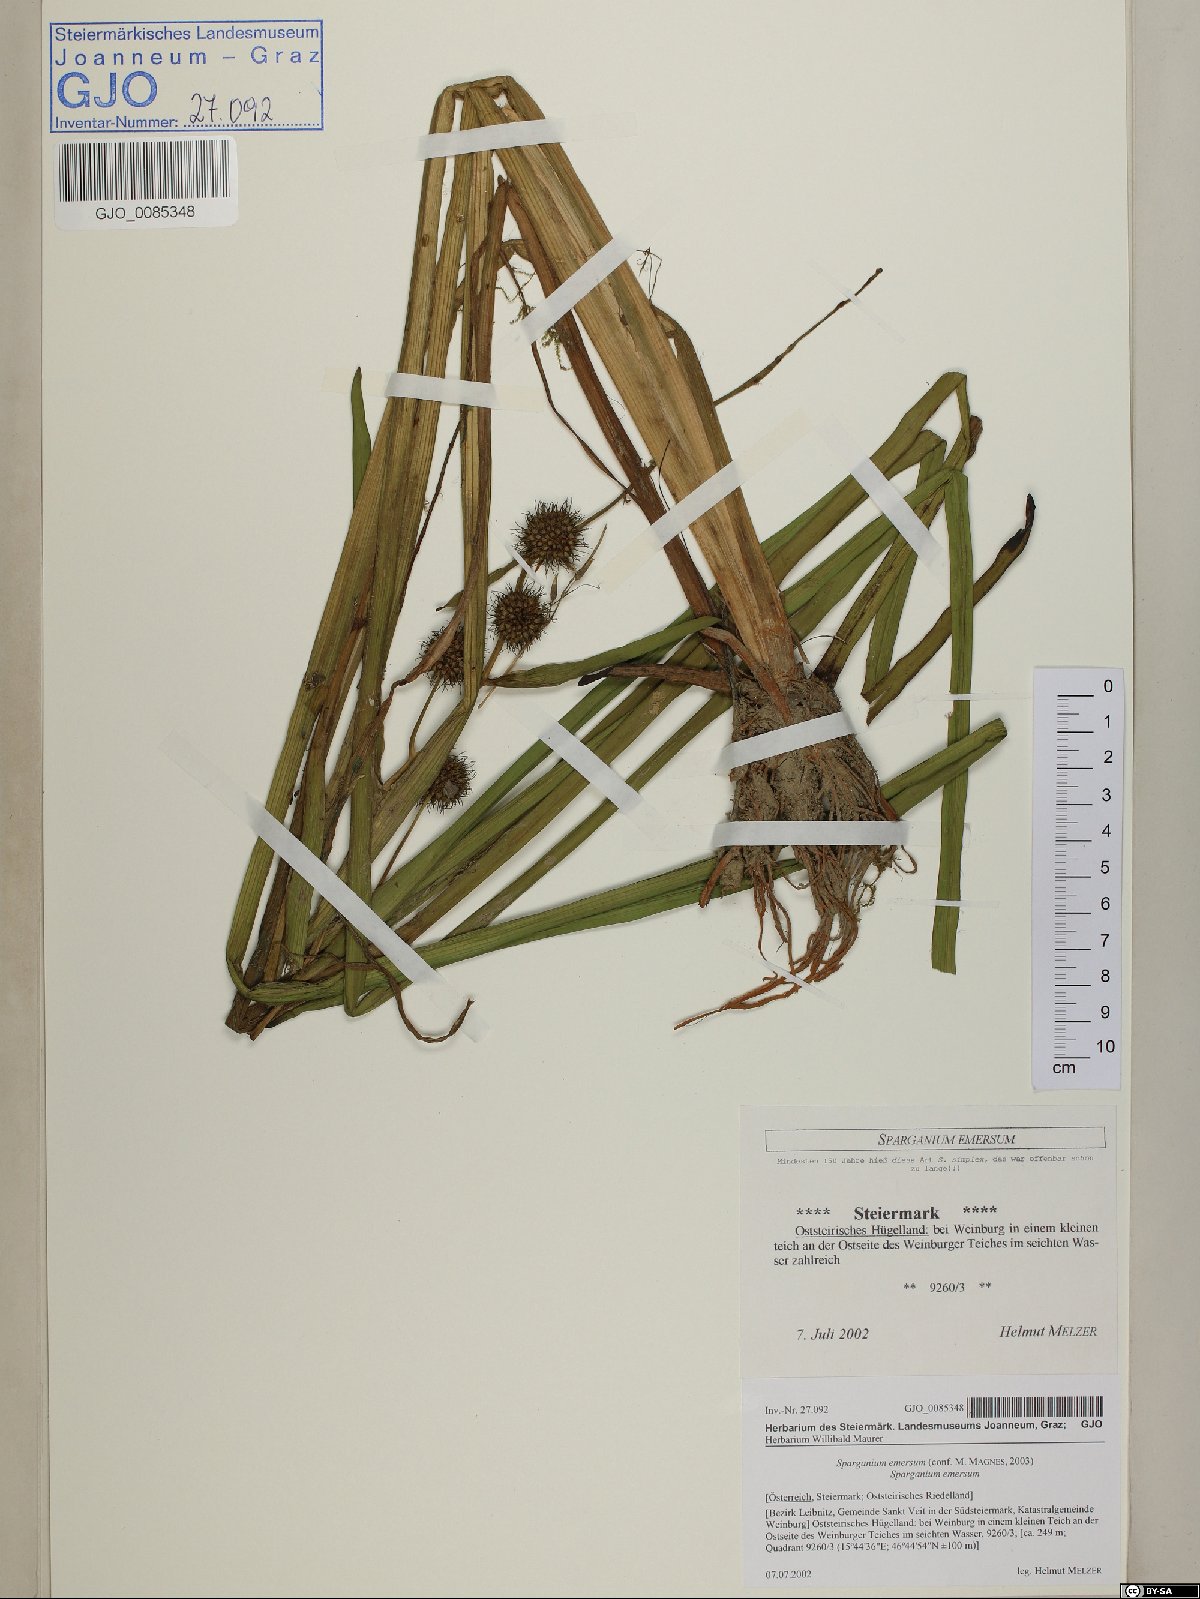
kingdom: Plantae
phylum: Tracheophyta
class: Liliopsida
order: Poales
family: Typhaceae
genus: Sparganium
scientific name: Sparganium emersum
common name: Unbranched bur-reed
